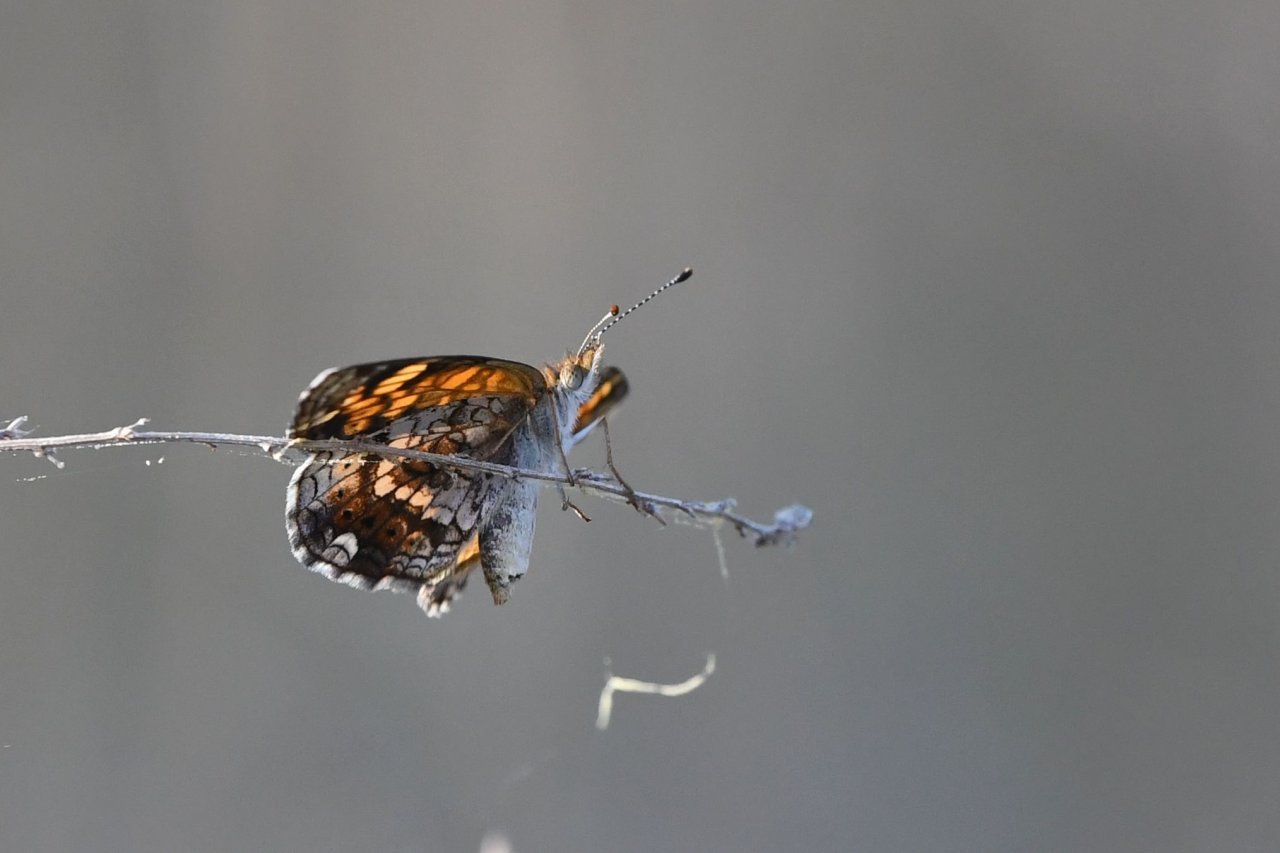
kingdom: Animalia
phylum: Arthropoda
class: Insecta
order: Lepidoptera
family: Nymphalidae
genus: Phyciodes
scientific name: Phyciodes tharos
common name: Pearl Crescent
